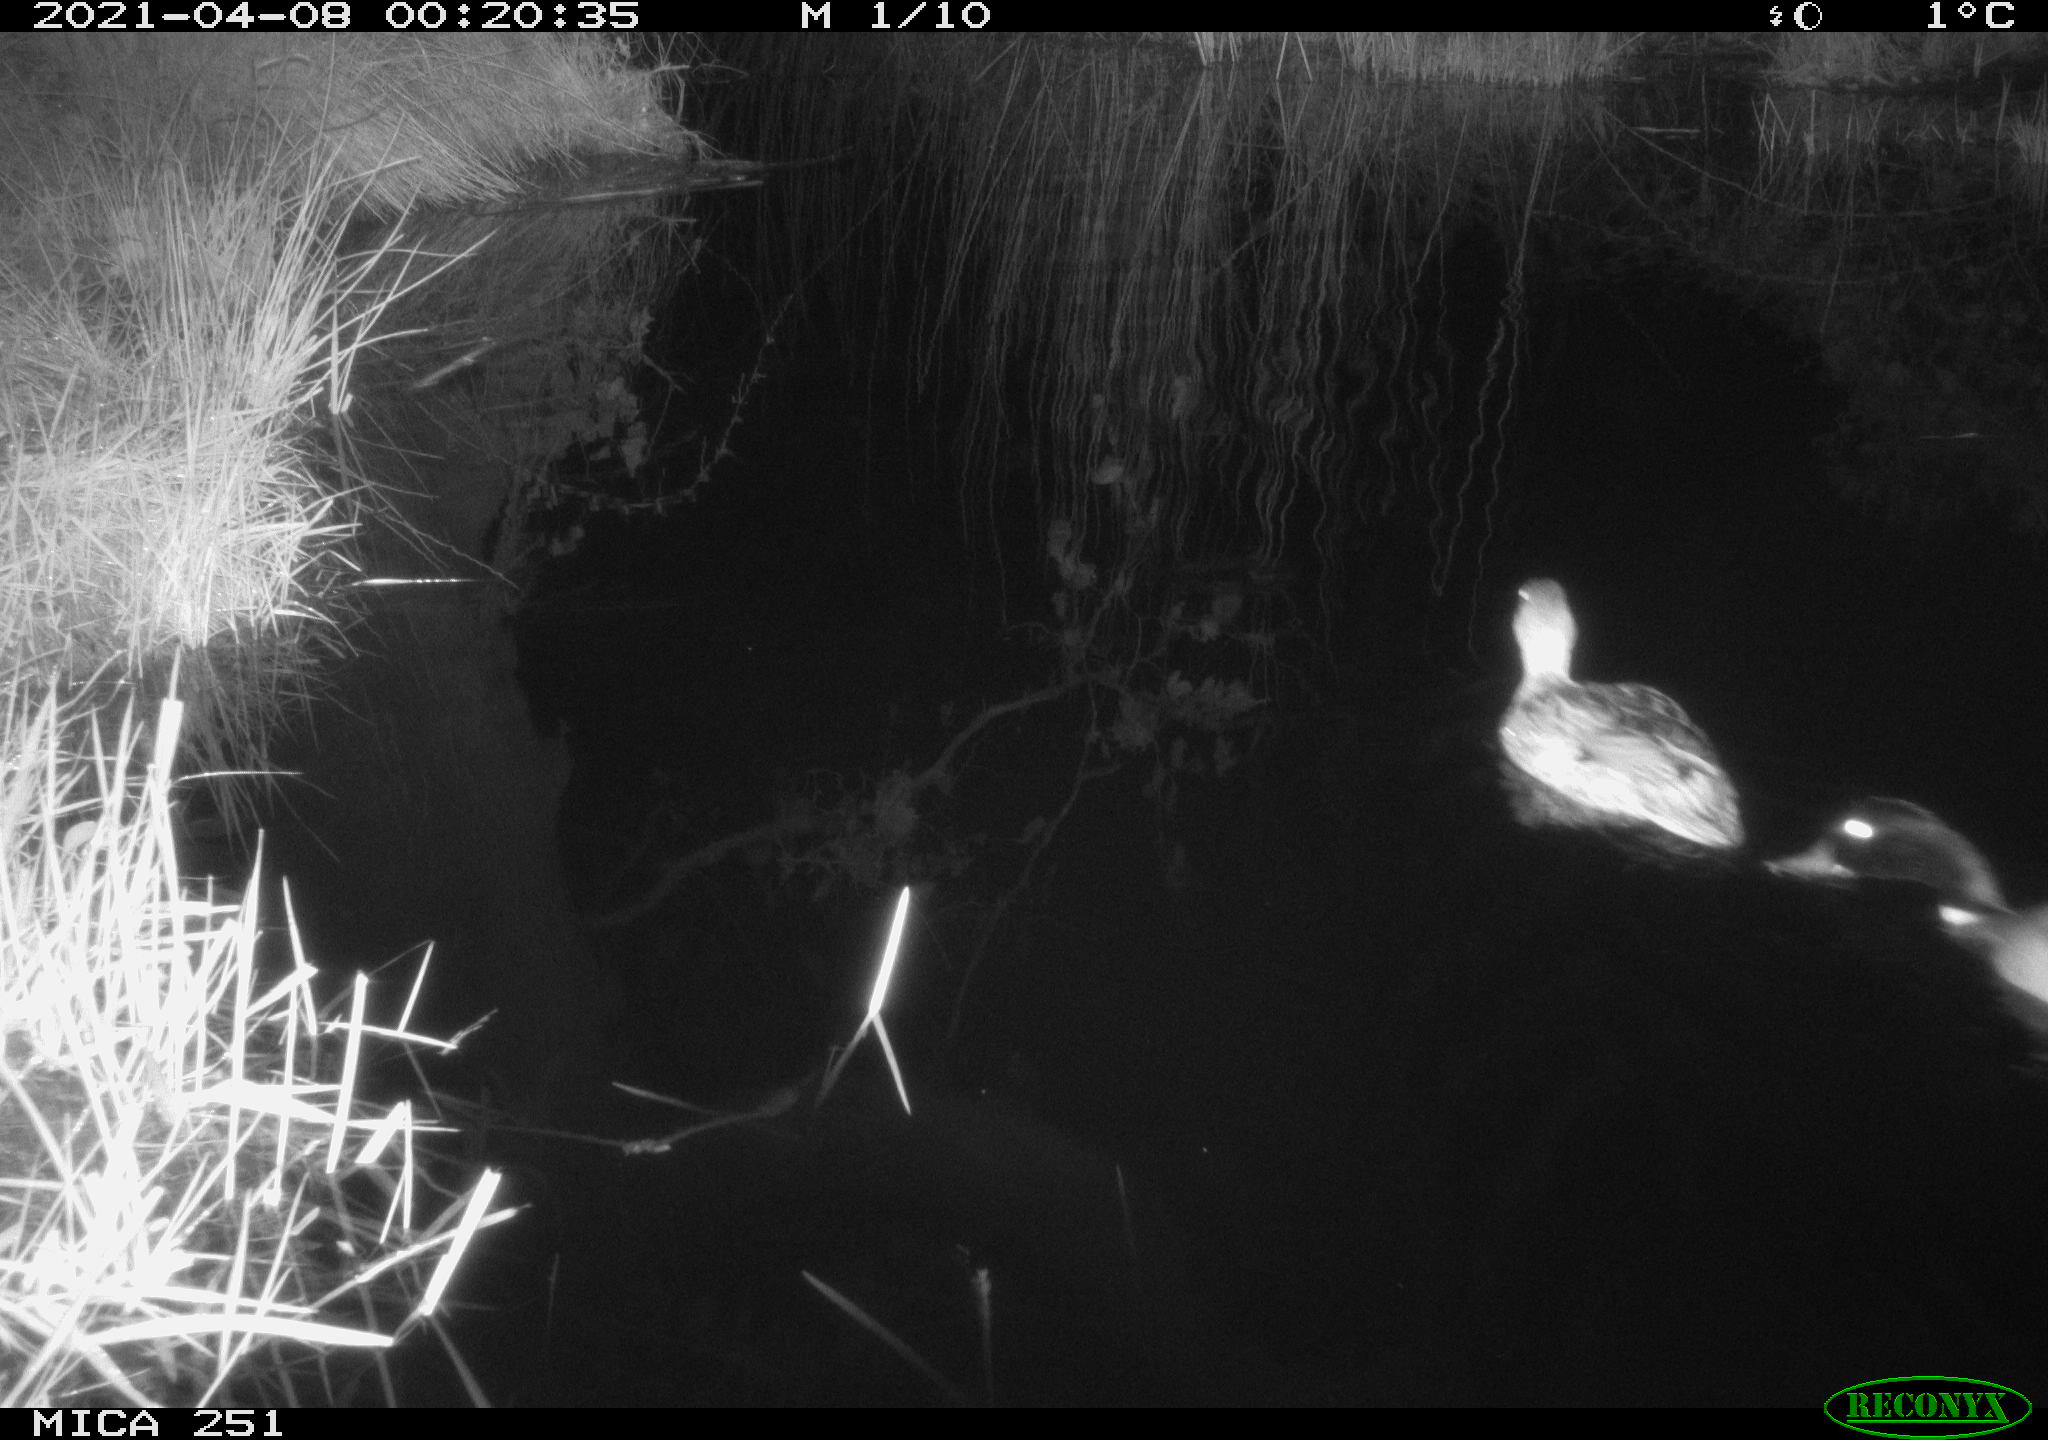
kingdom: Animalia
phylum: Chordata
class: Aves
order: Anseriformes
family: Anatidae
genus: Anas
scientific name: Anas platyrhynchos
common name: Mallard
